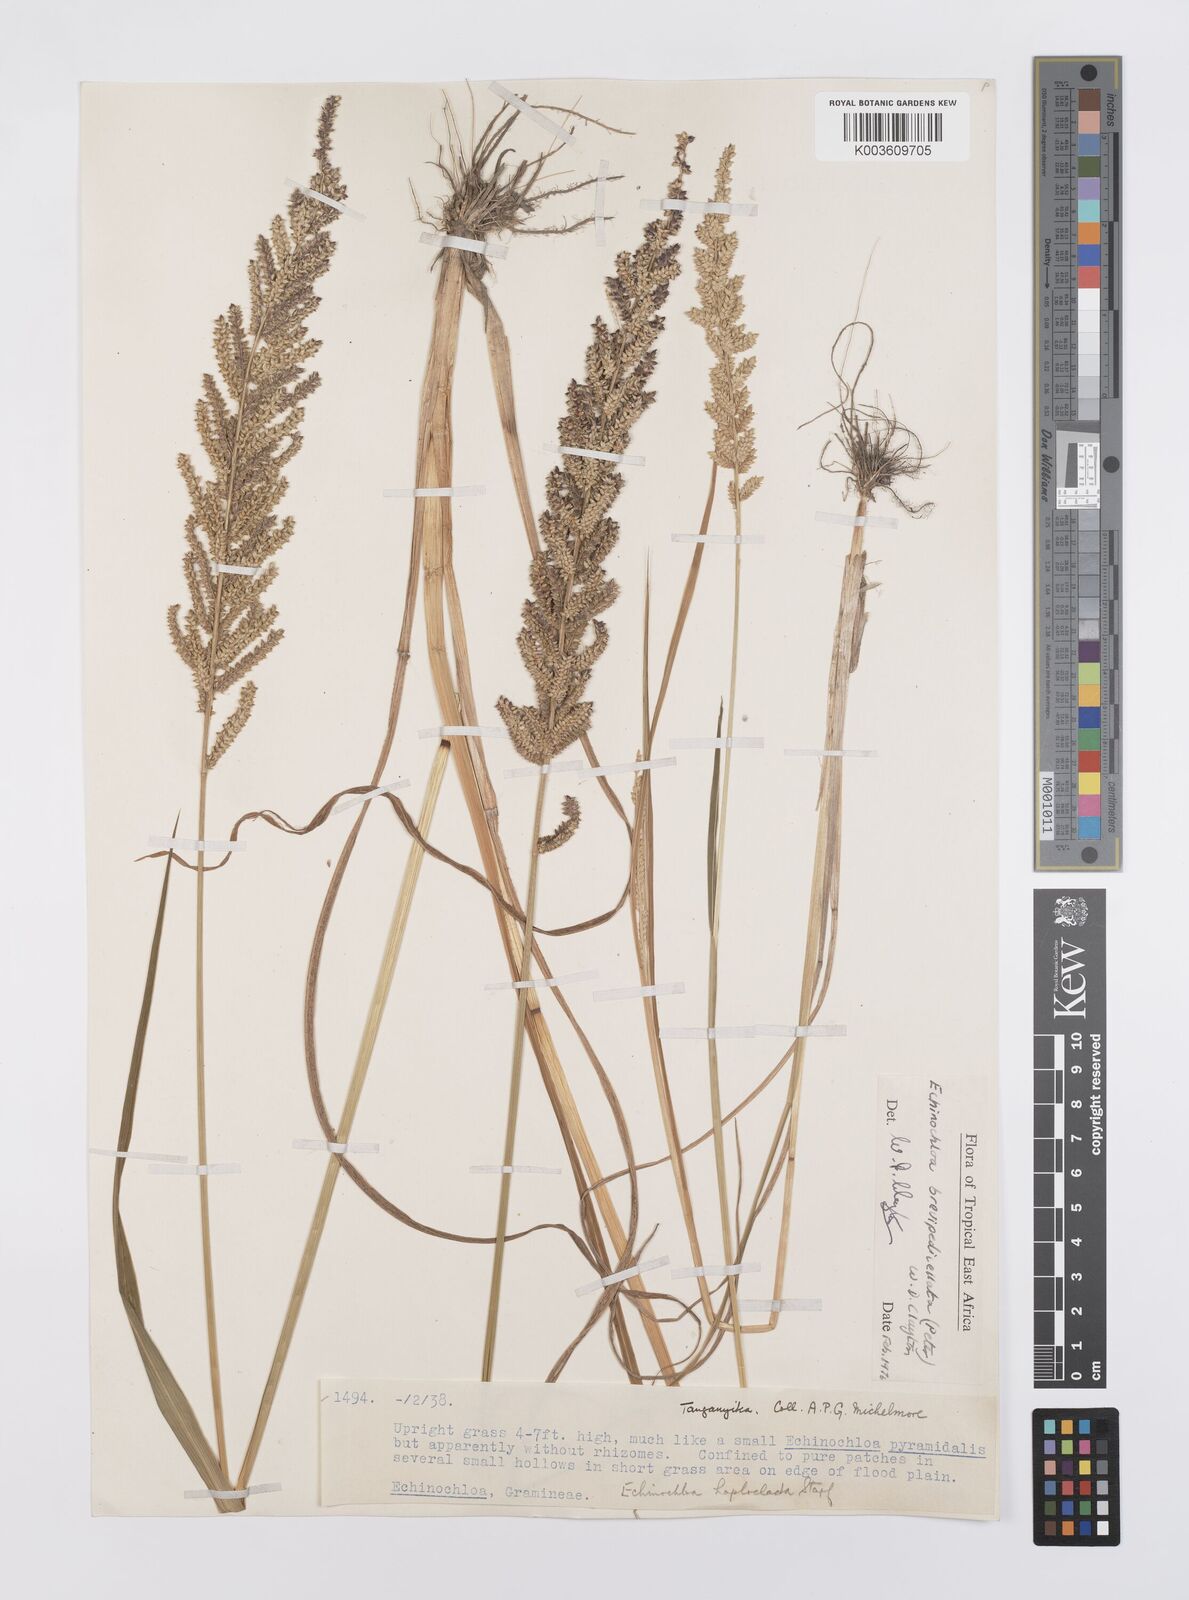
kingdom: Plantae
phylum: Tracheophyta
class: Liliopsida
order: Poales
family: Poaceae
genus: Echinochloa
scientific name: Echinochloa brevipedicellata
